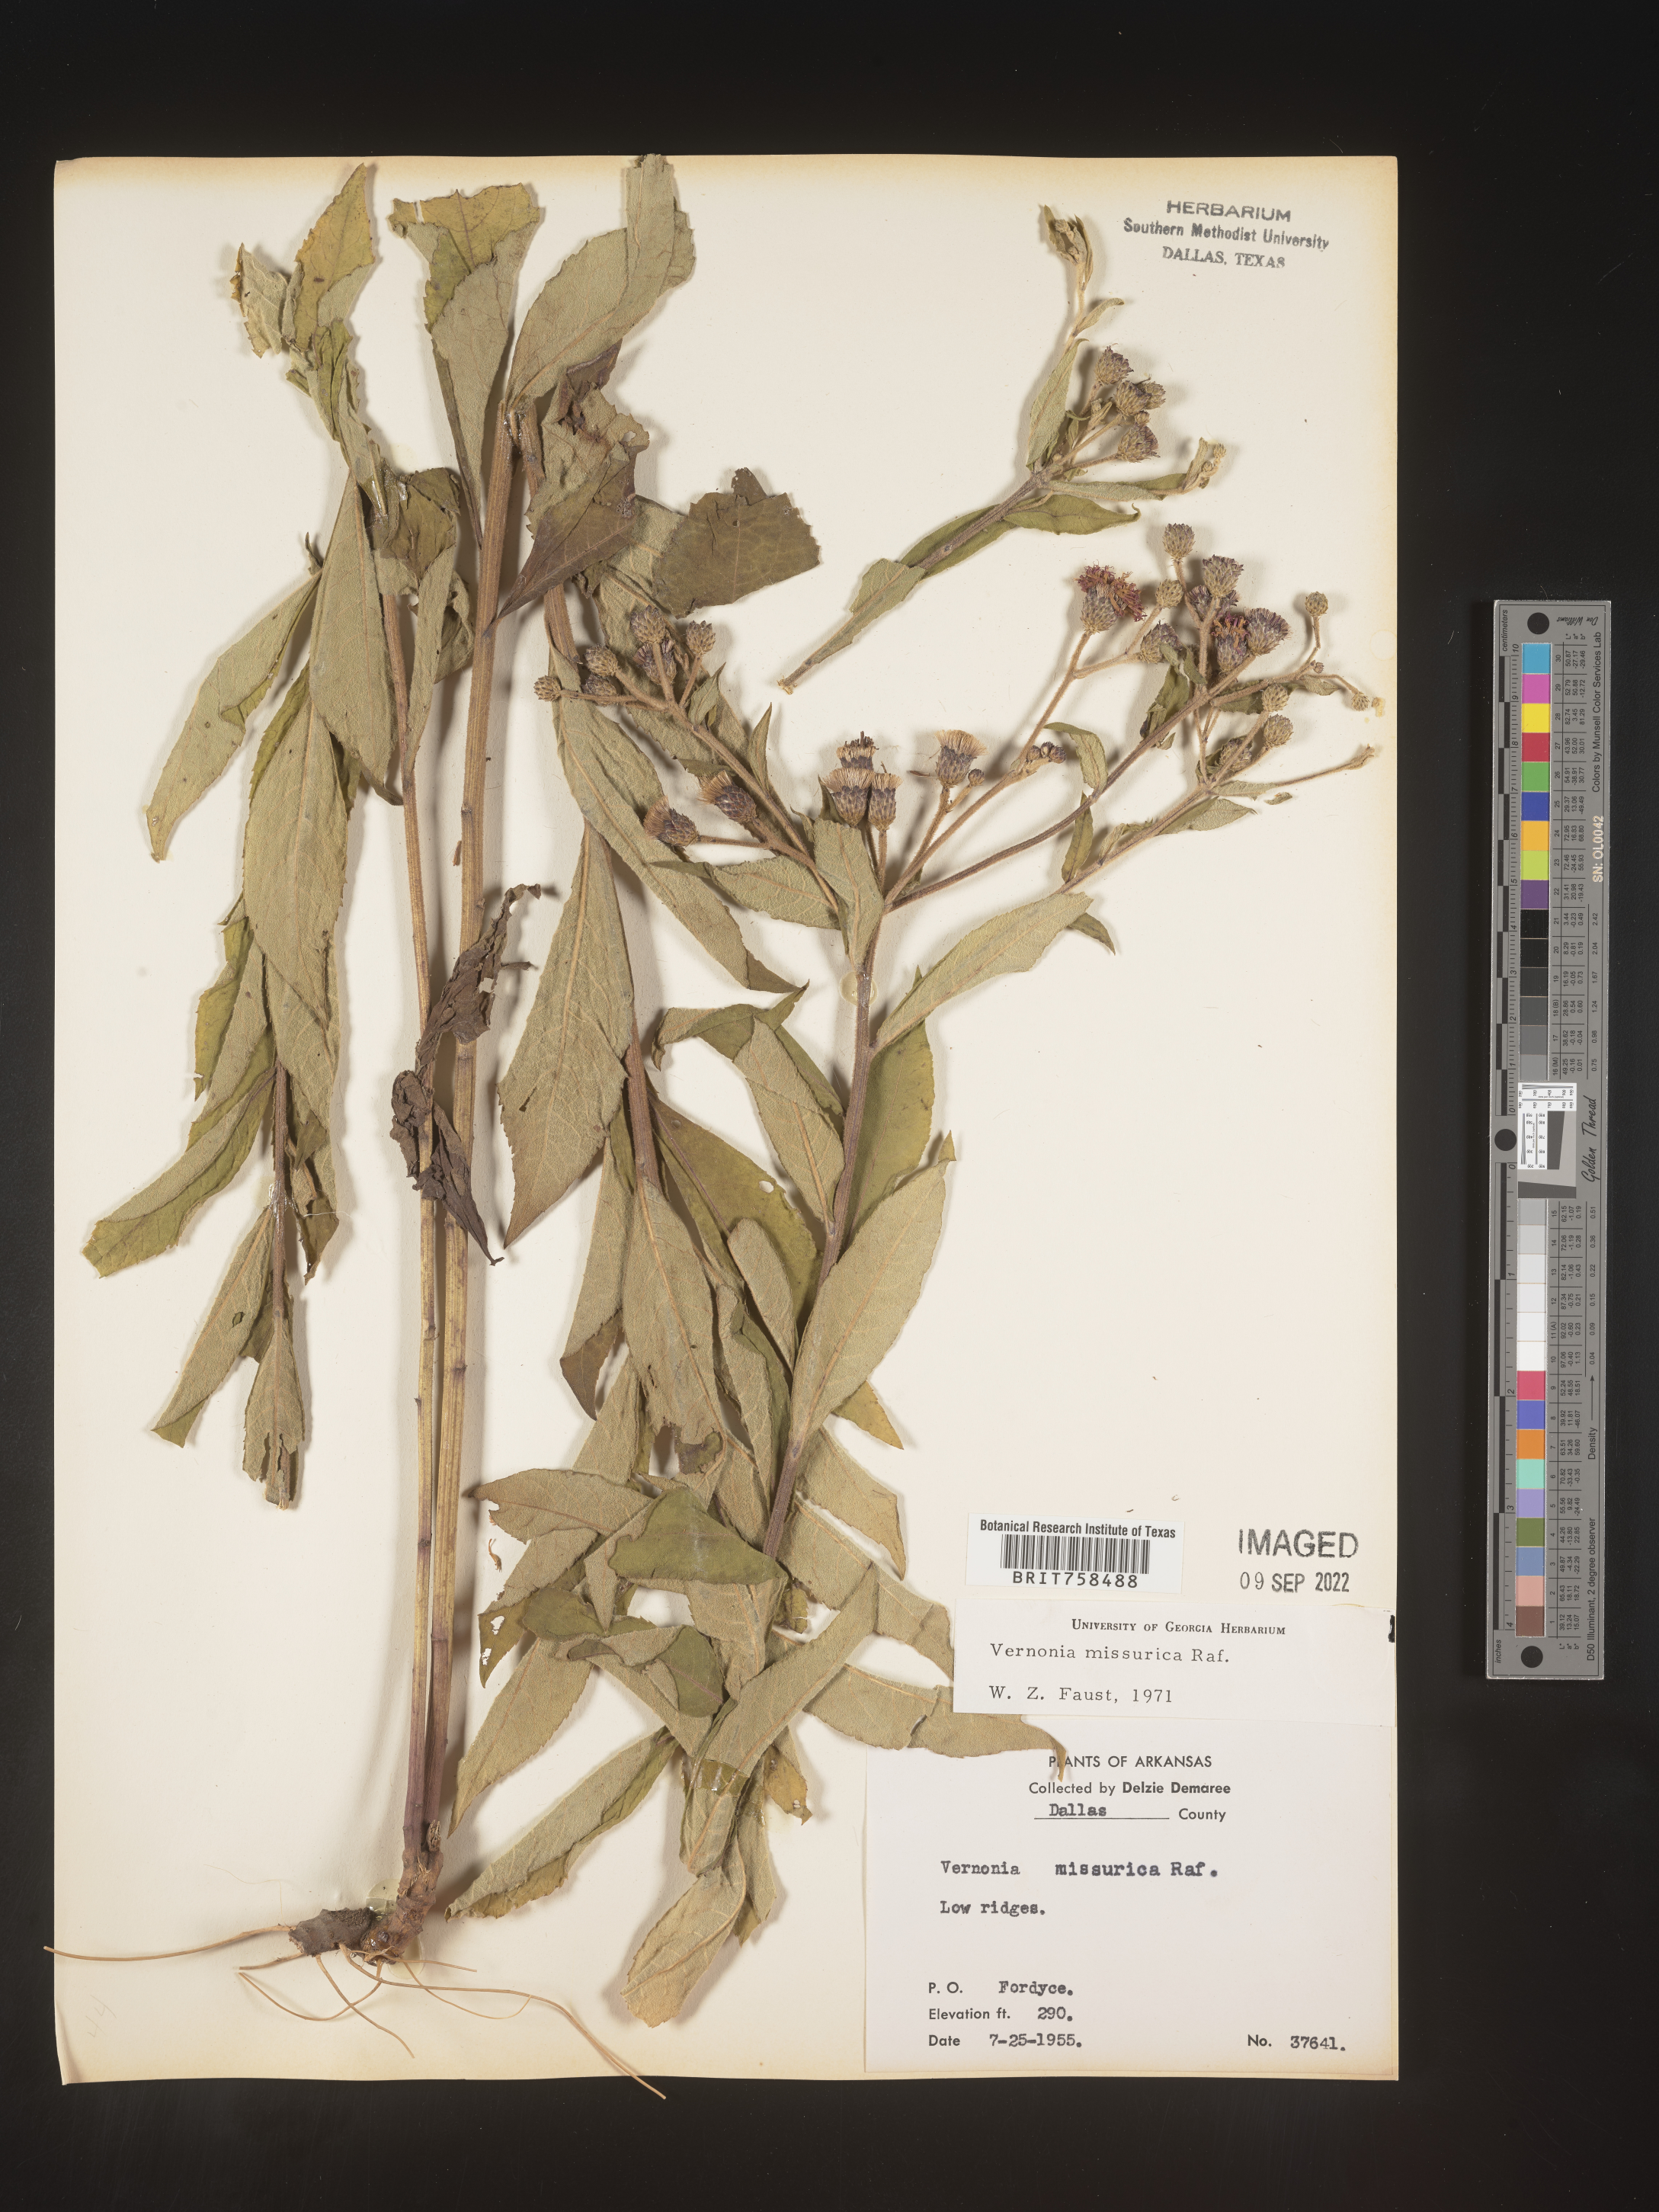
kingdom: Plantae
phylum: Tracheophyta
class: Magnoliopsida
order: Asterales
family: Asteraceae
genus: Vernonia
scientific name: Vernonia missurica
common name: Missouri ironweed
